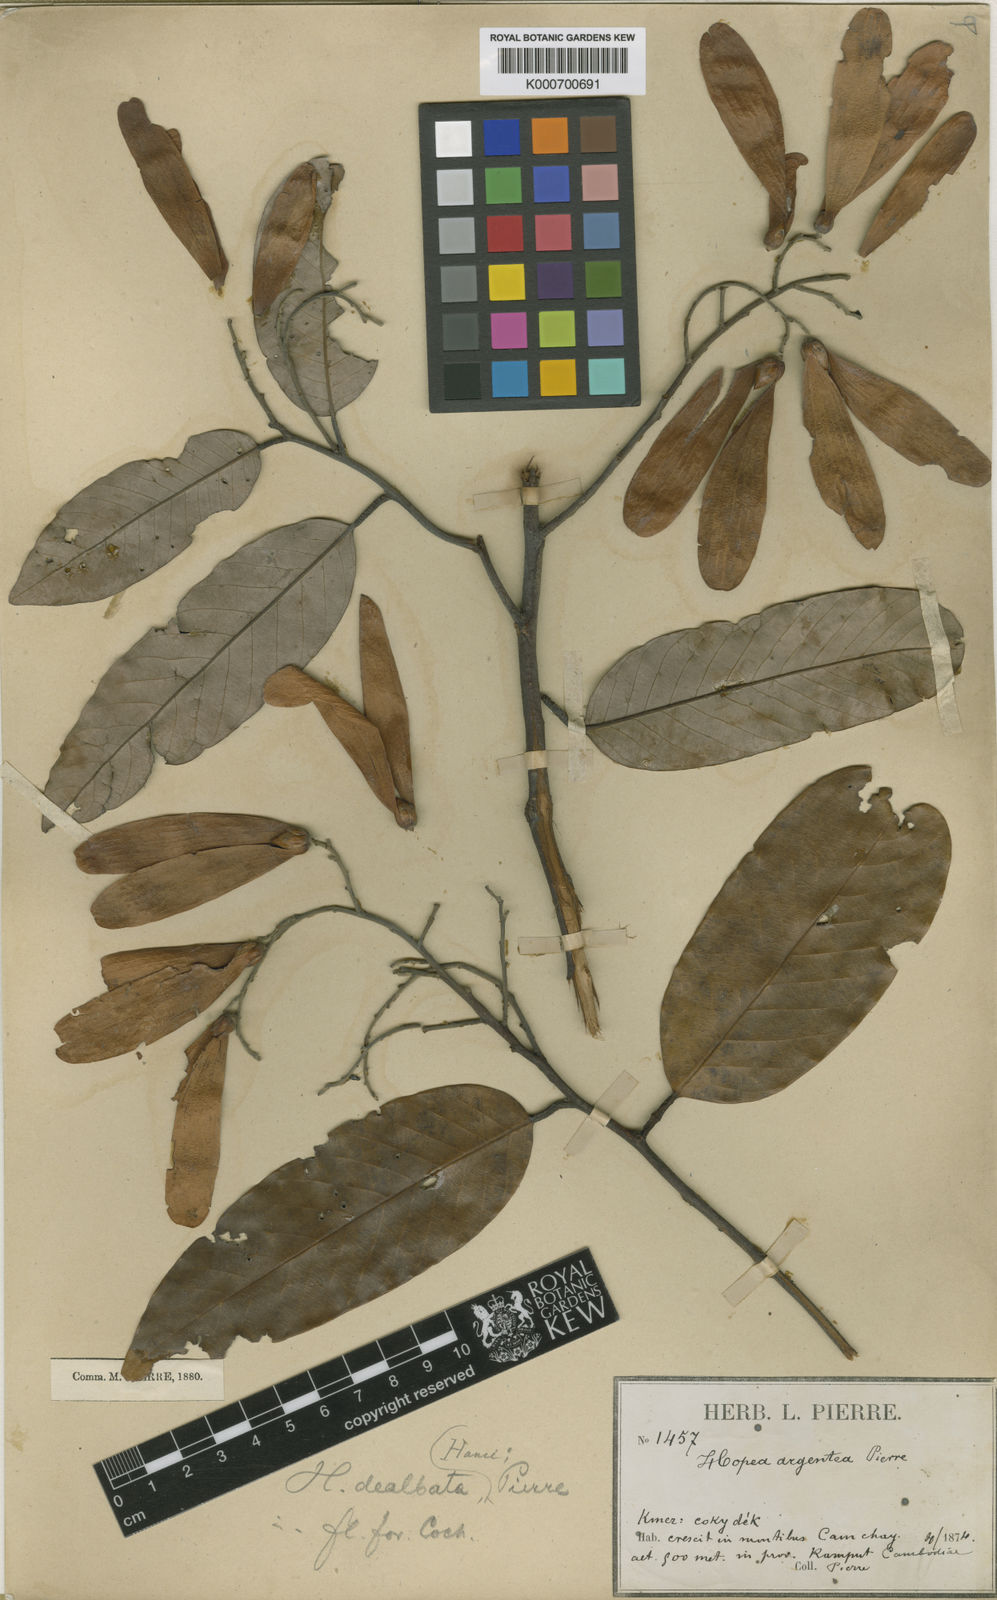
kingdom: Plantae
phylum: Tracheophyta
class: Magnoliopsida
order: Malvales
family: Dipterocarpaceae
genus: Hopea
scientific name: Hopea helferi
